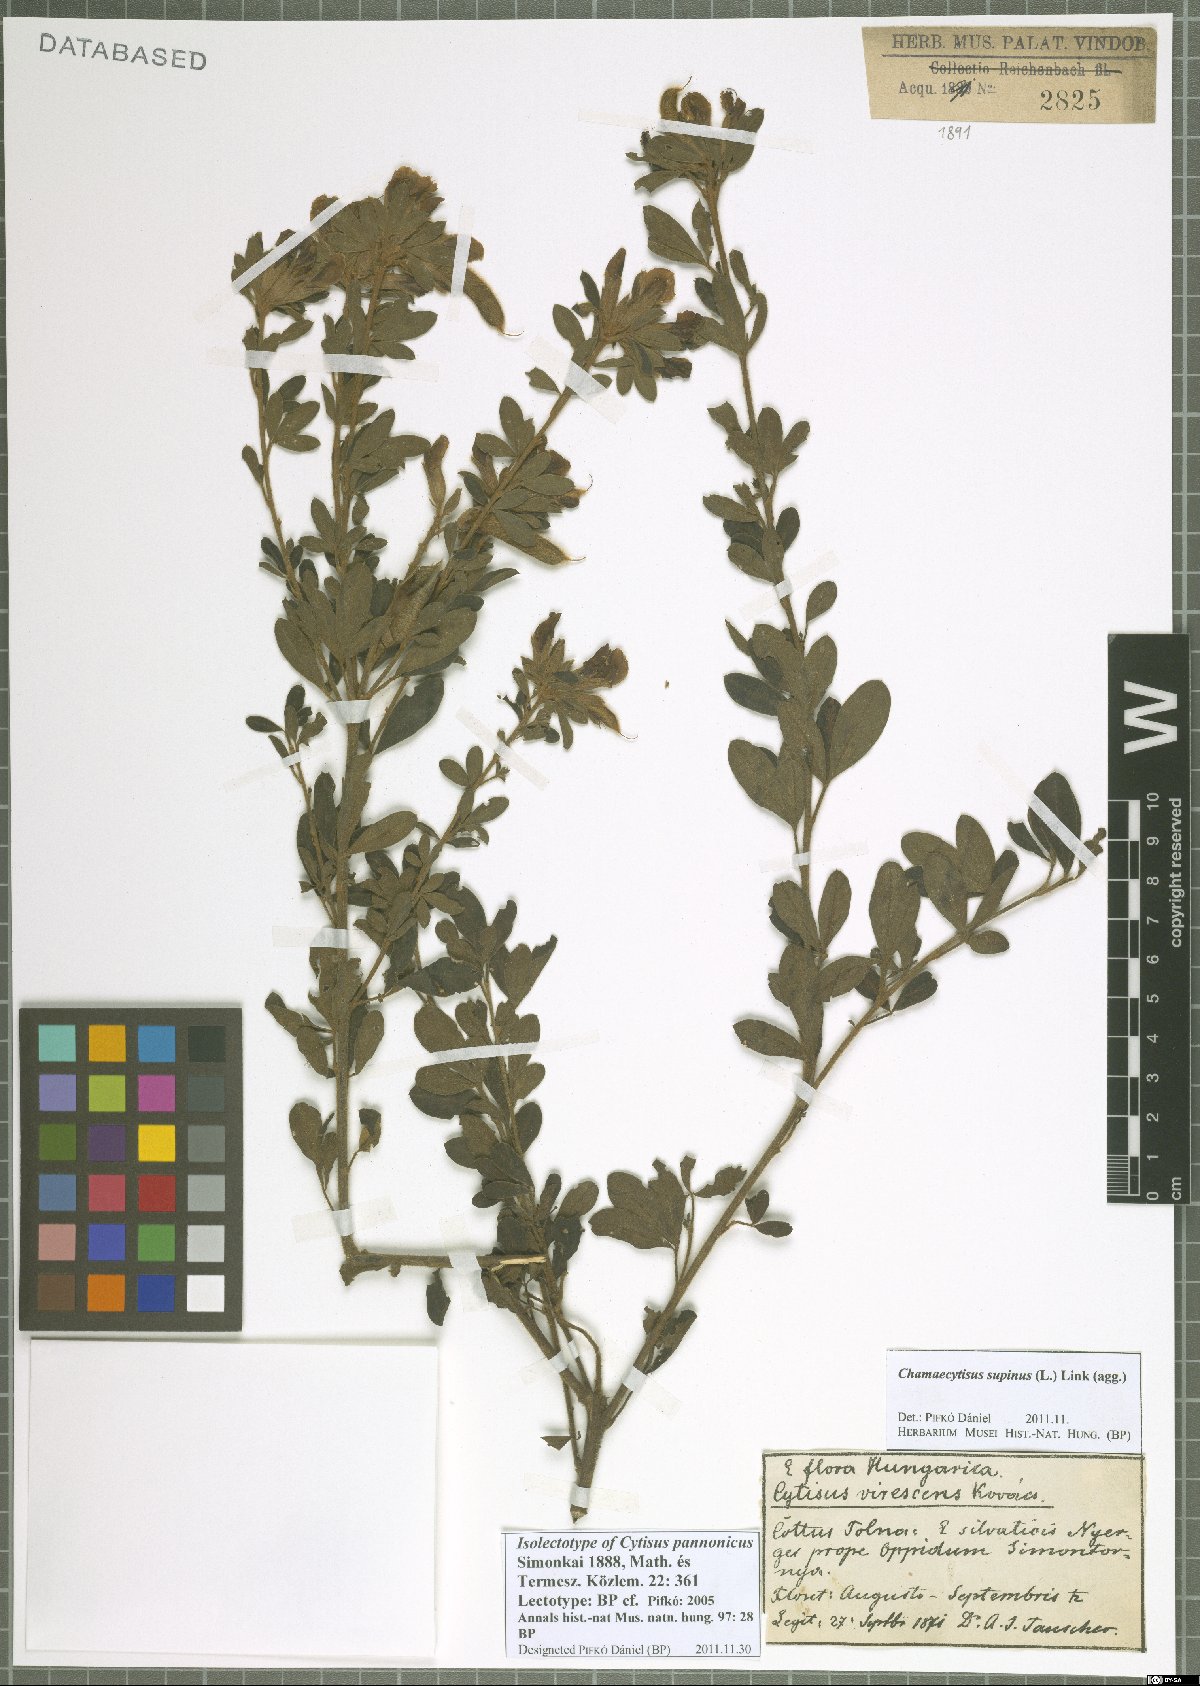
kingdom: Plantae
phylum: Tracheophyta
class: Magnoliopsida
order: Fabales
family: Fabaceae
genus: Chamaecytisus
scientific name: Chamaecytisus supinus
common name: Clustered broom
